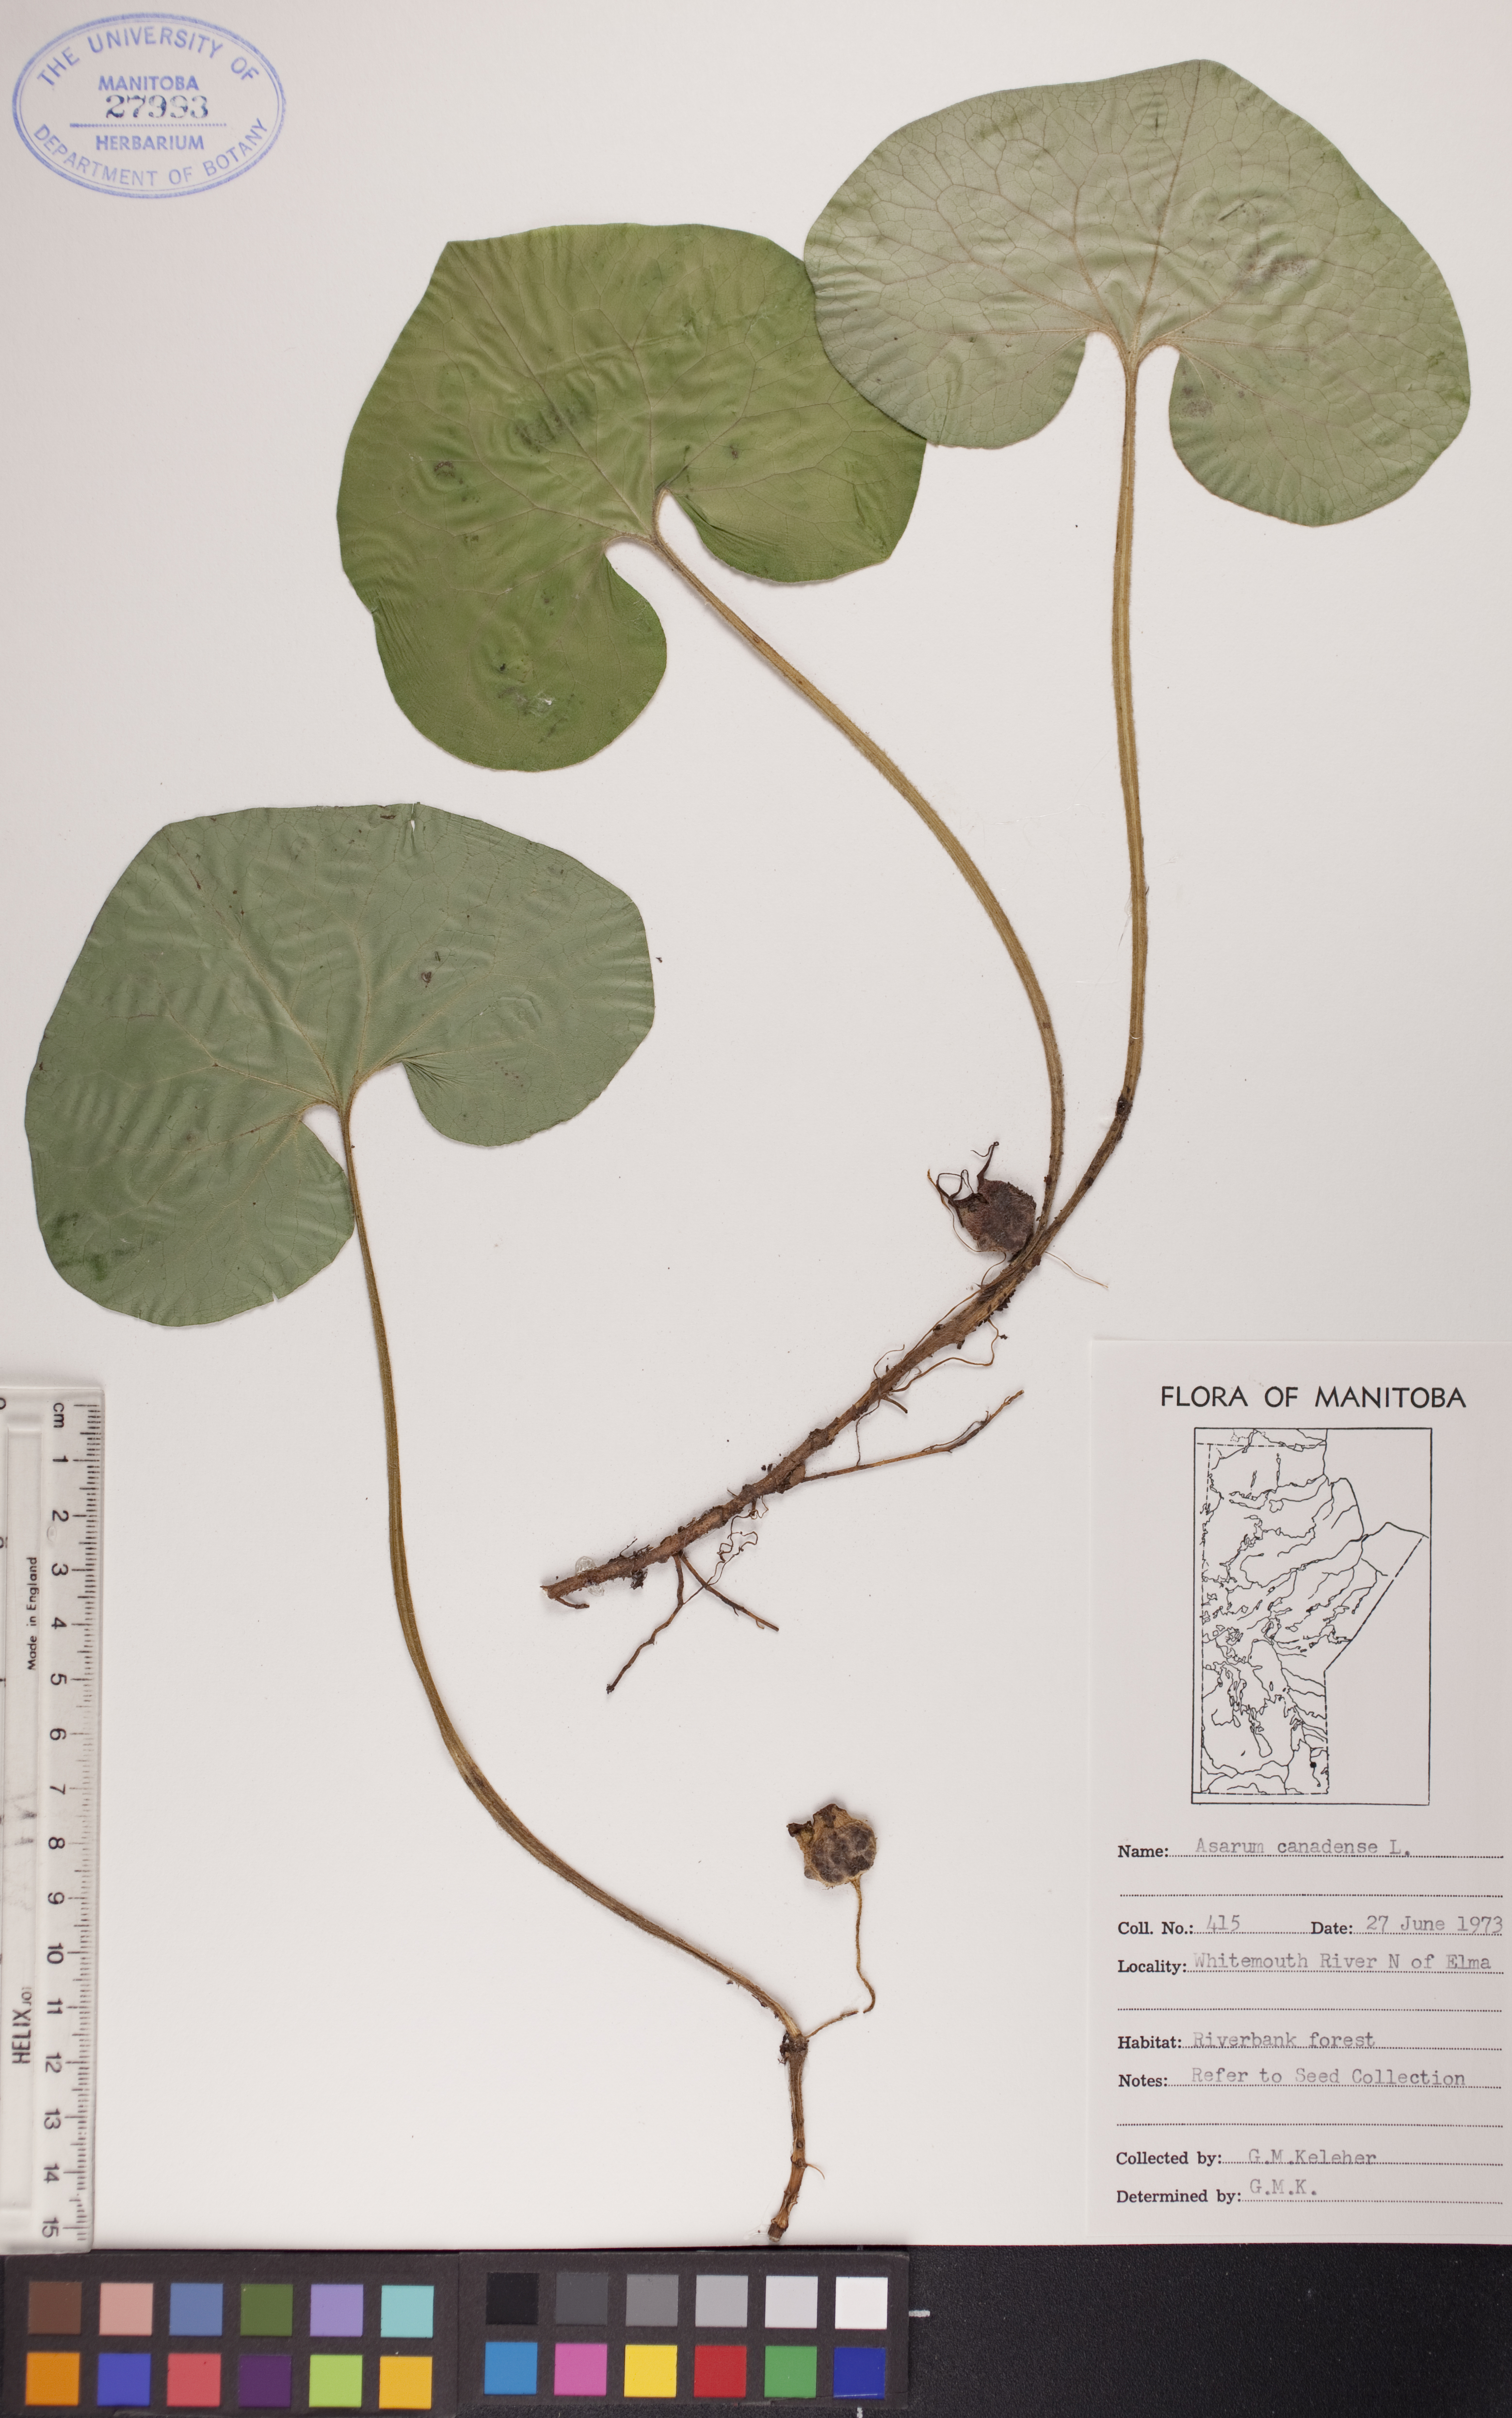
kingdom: Plantae
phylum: Tracheophyta
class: Magnoliopsida
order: Piperales
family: Aristolochiaceae
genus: Asarum
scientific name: Asarum canadense
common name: Wild ginger
